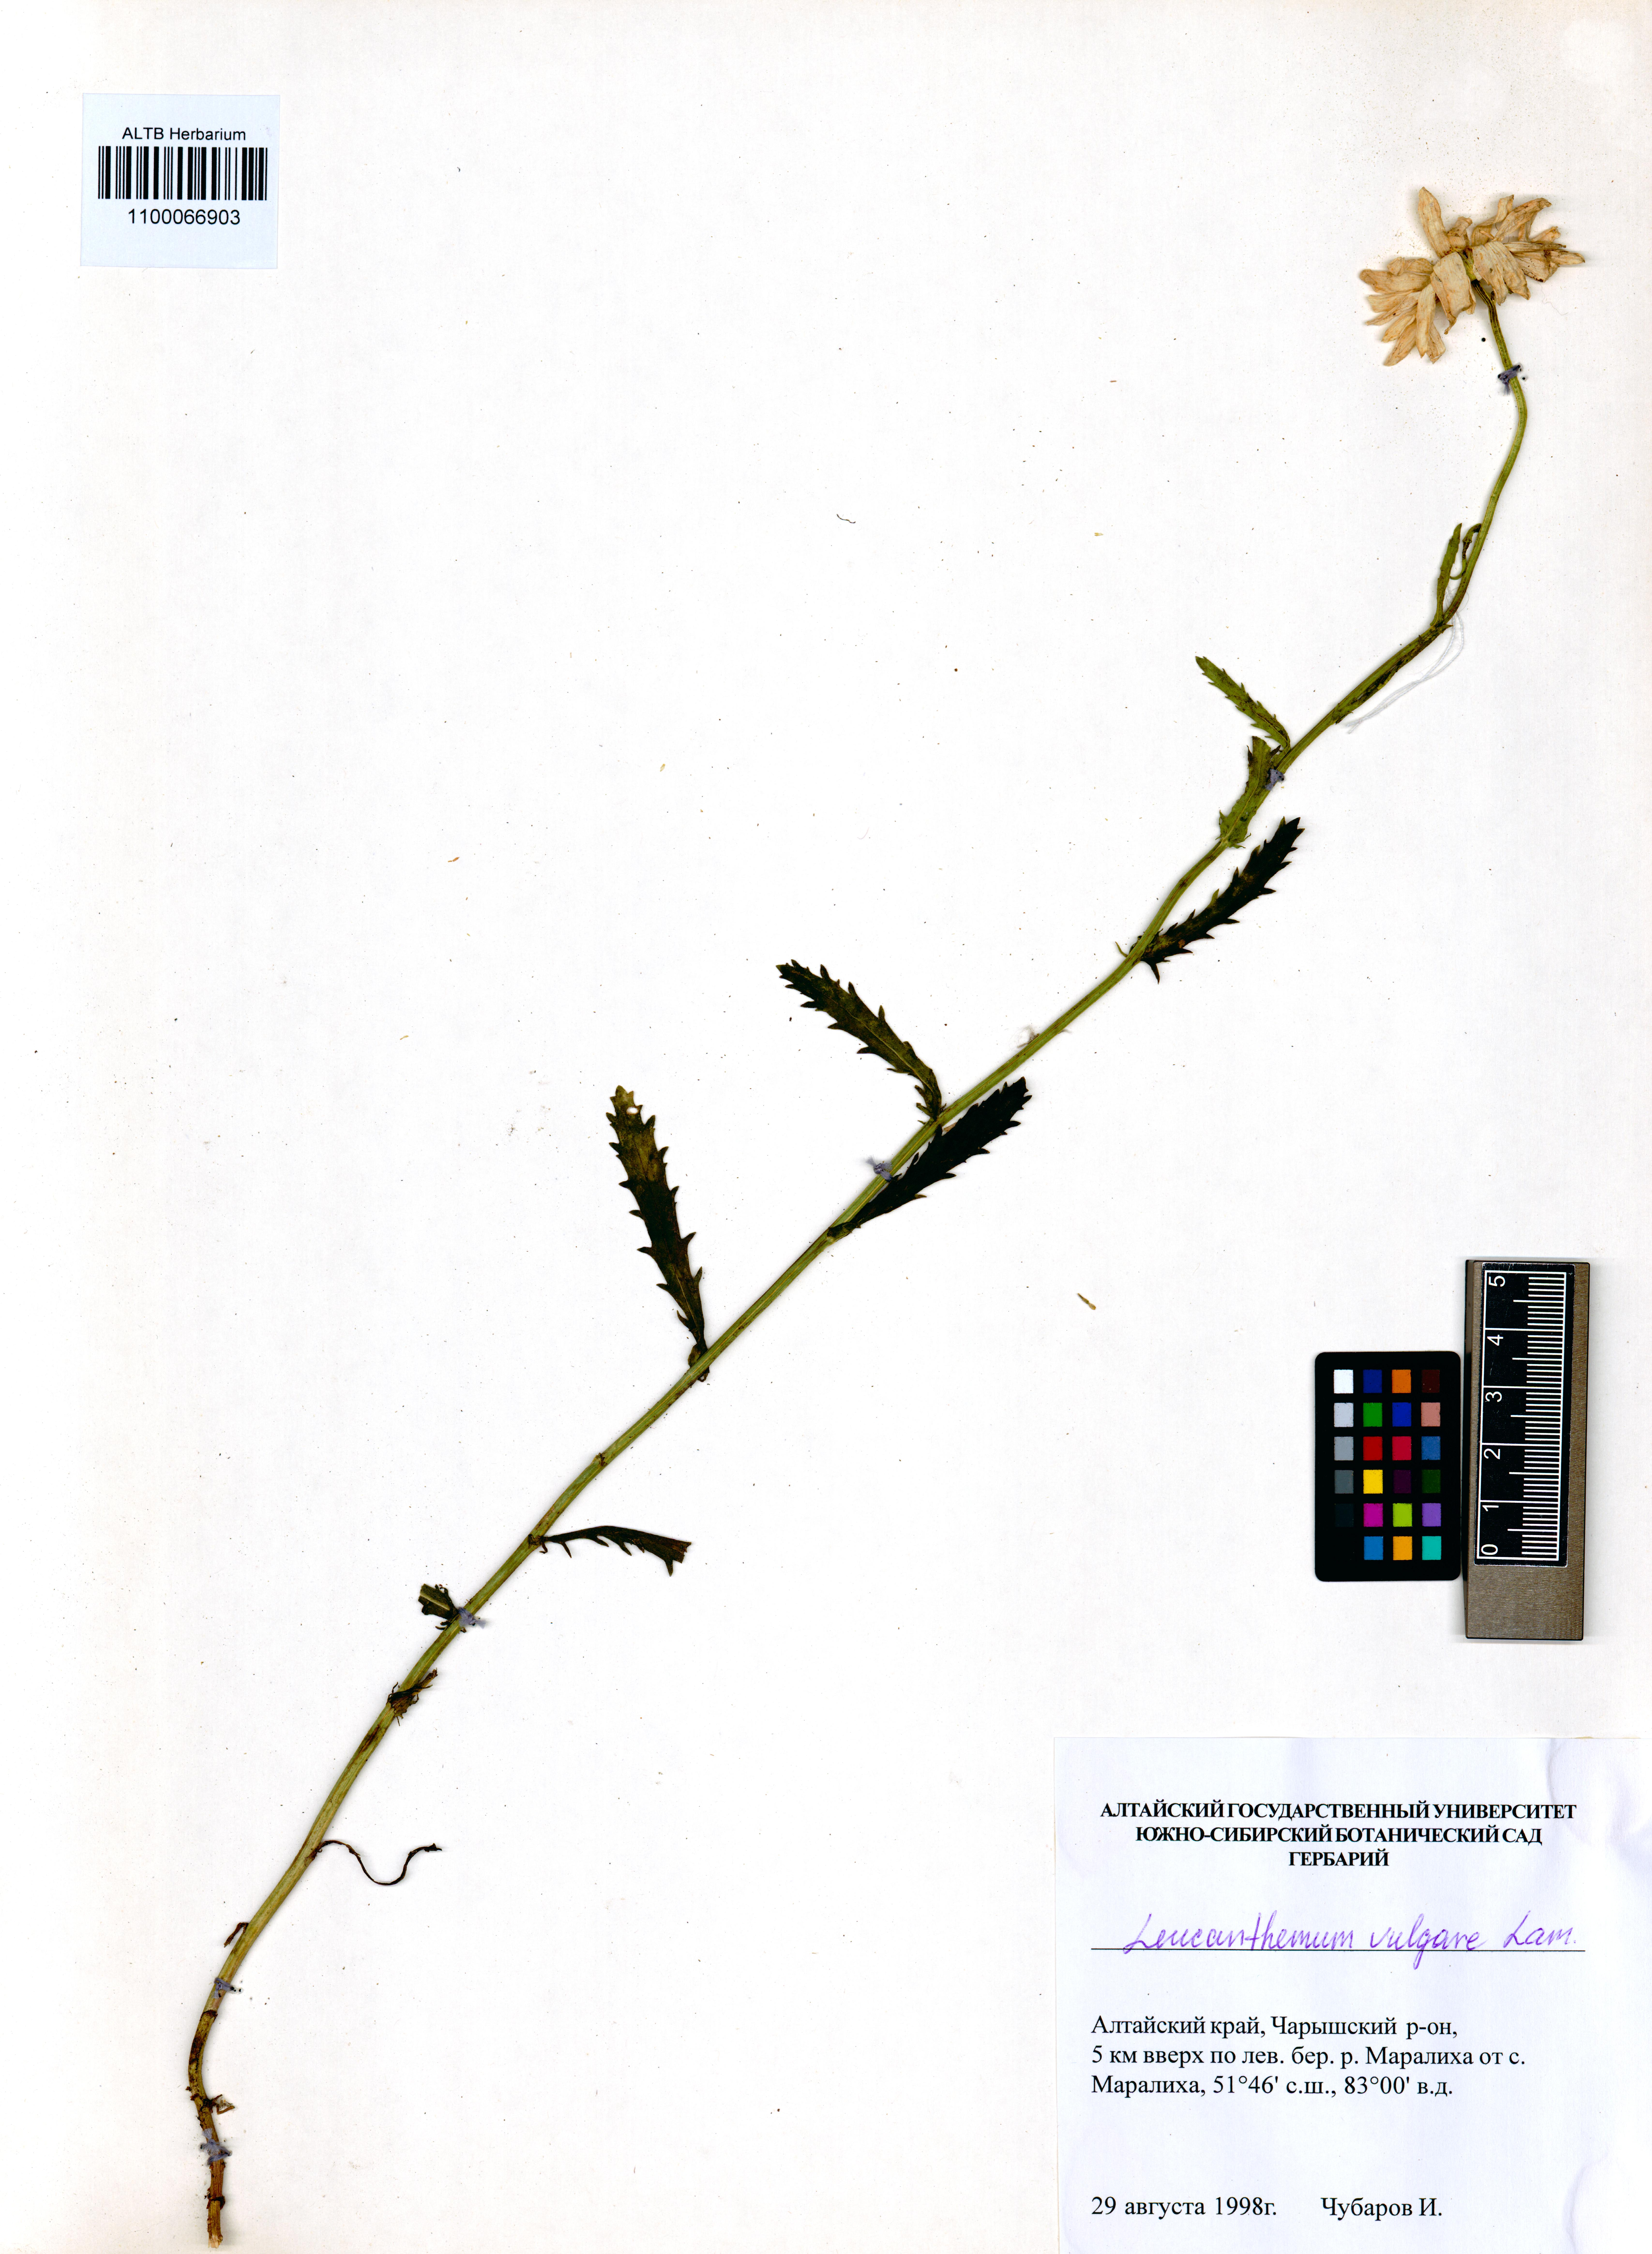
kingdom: Plantae
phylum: Tracheophyta
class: Magnoliopsida
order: Asterales
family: Asteraceae
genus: Leucanthemum
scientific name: Leucanthemum vulgare
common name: Oxeye daisy
